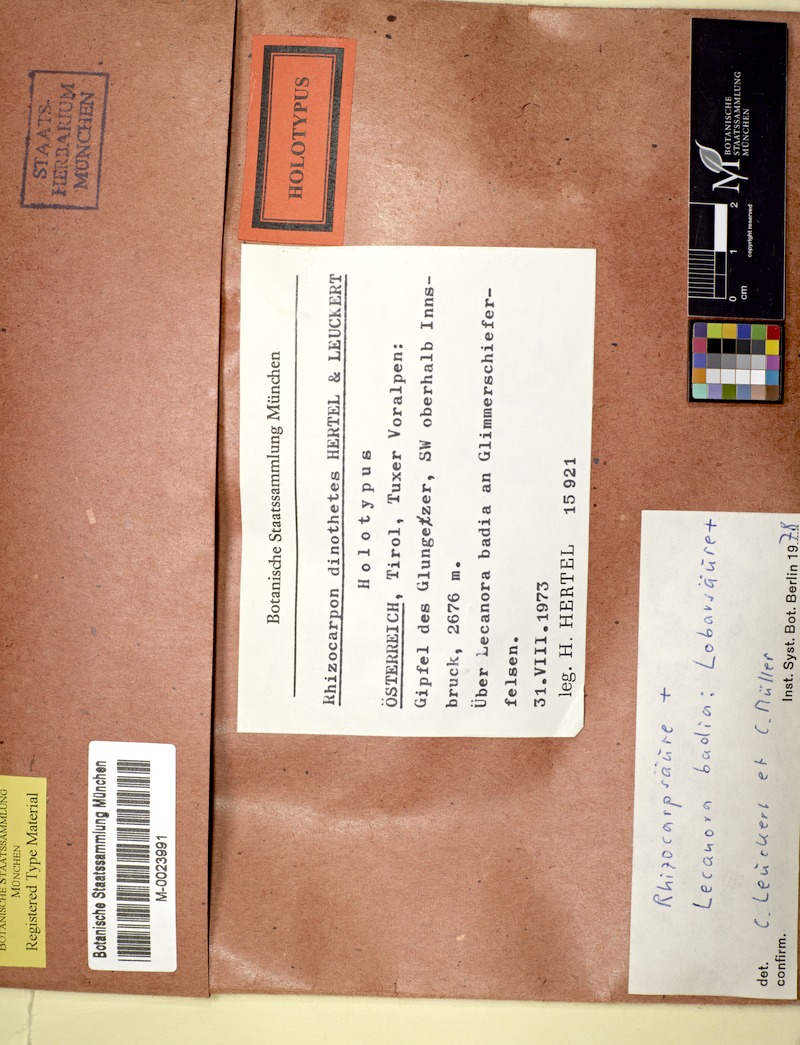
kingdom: Fungi
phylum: Ascomycota
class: Lecanoromycetes
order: Rhizocarpales
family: Rhizocarpaceae
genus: Rhizocarpon
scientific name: Rhizocarpon dinothetes
